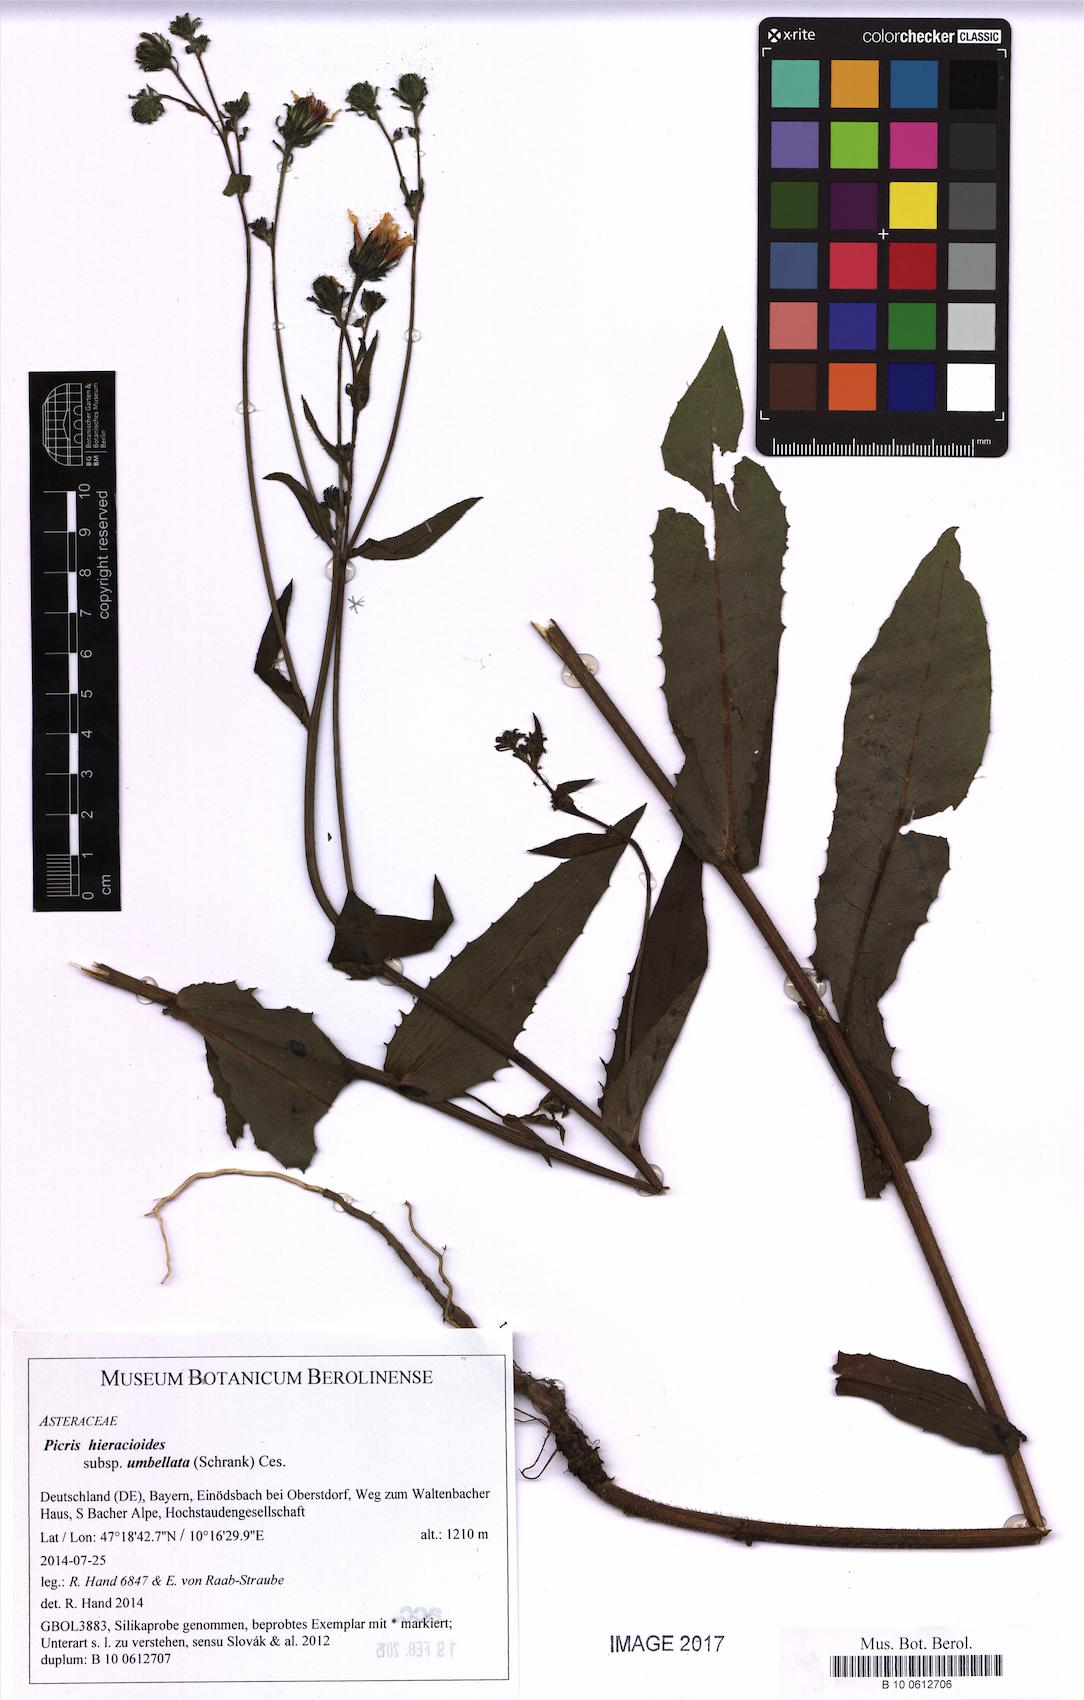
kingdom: Plantae
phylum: Tracheophyta
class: Magnoliopsida
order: Asterales
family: Asteraceae
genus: Picris
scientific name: Picris hieracioides
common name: Hawkweed oxtongue
